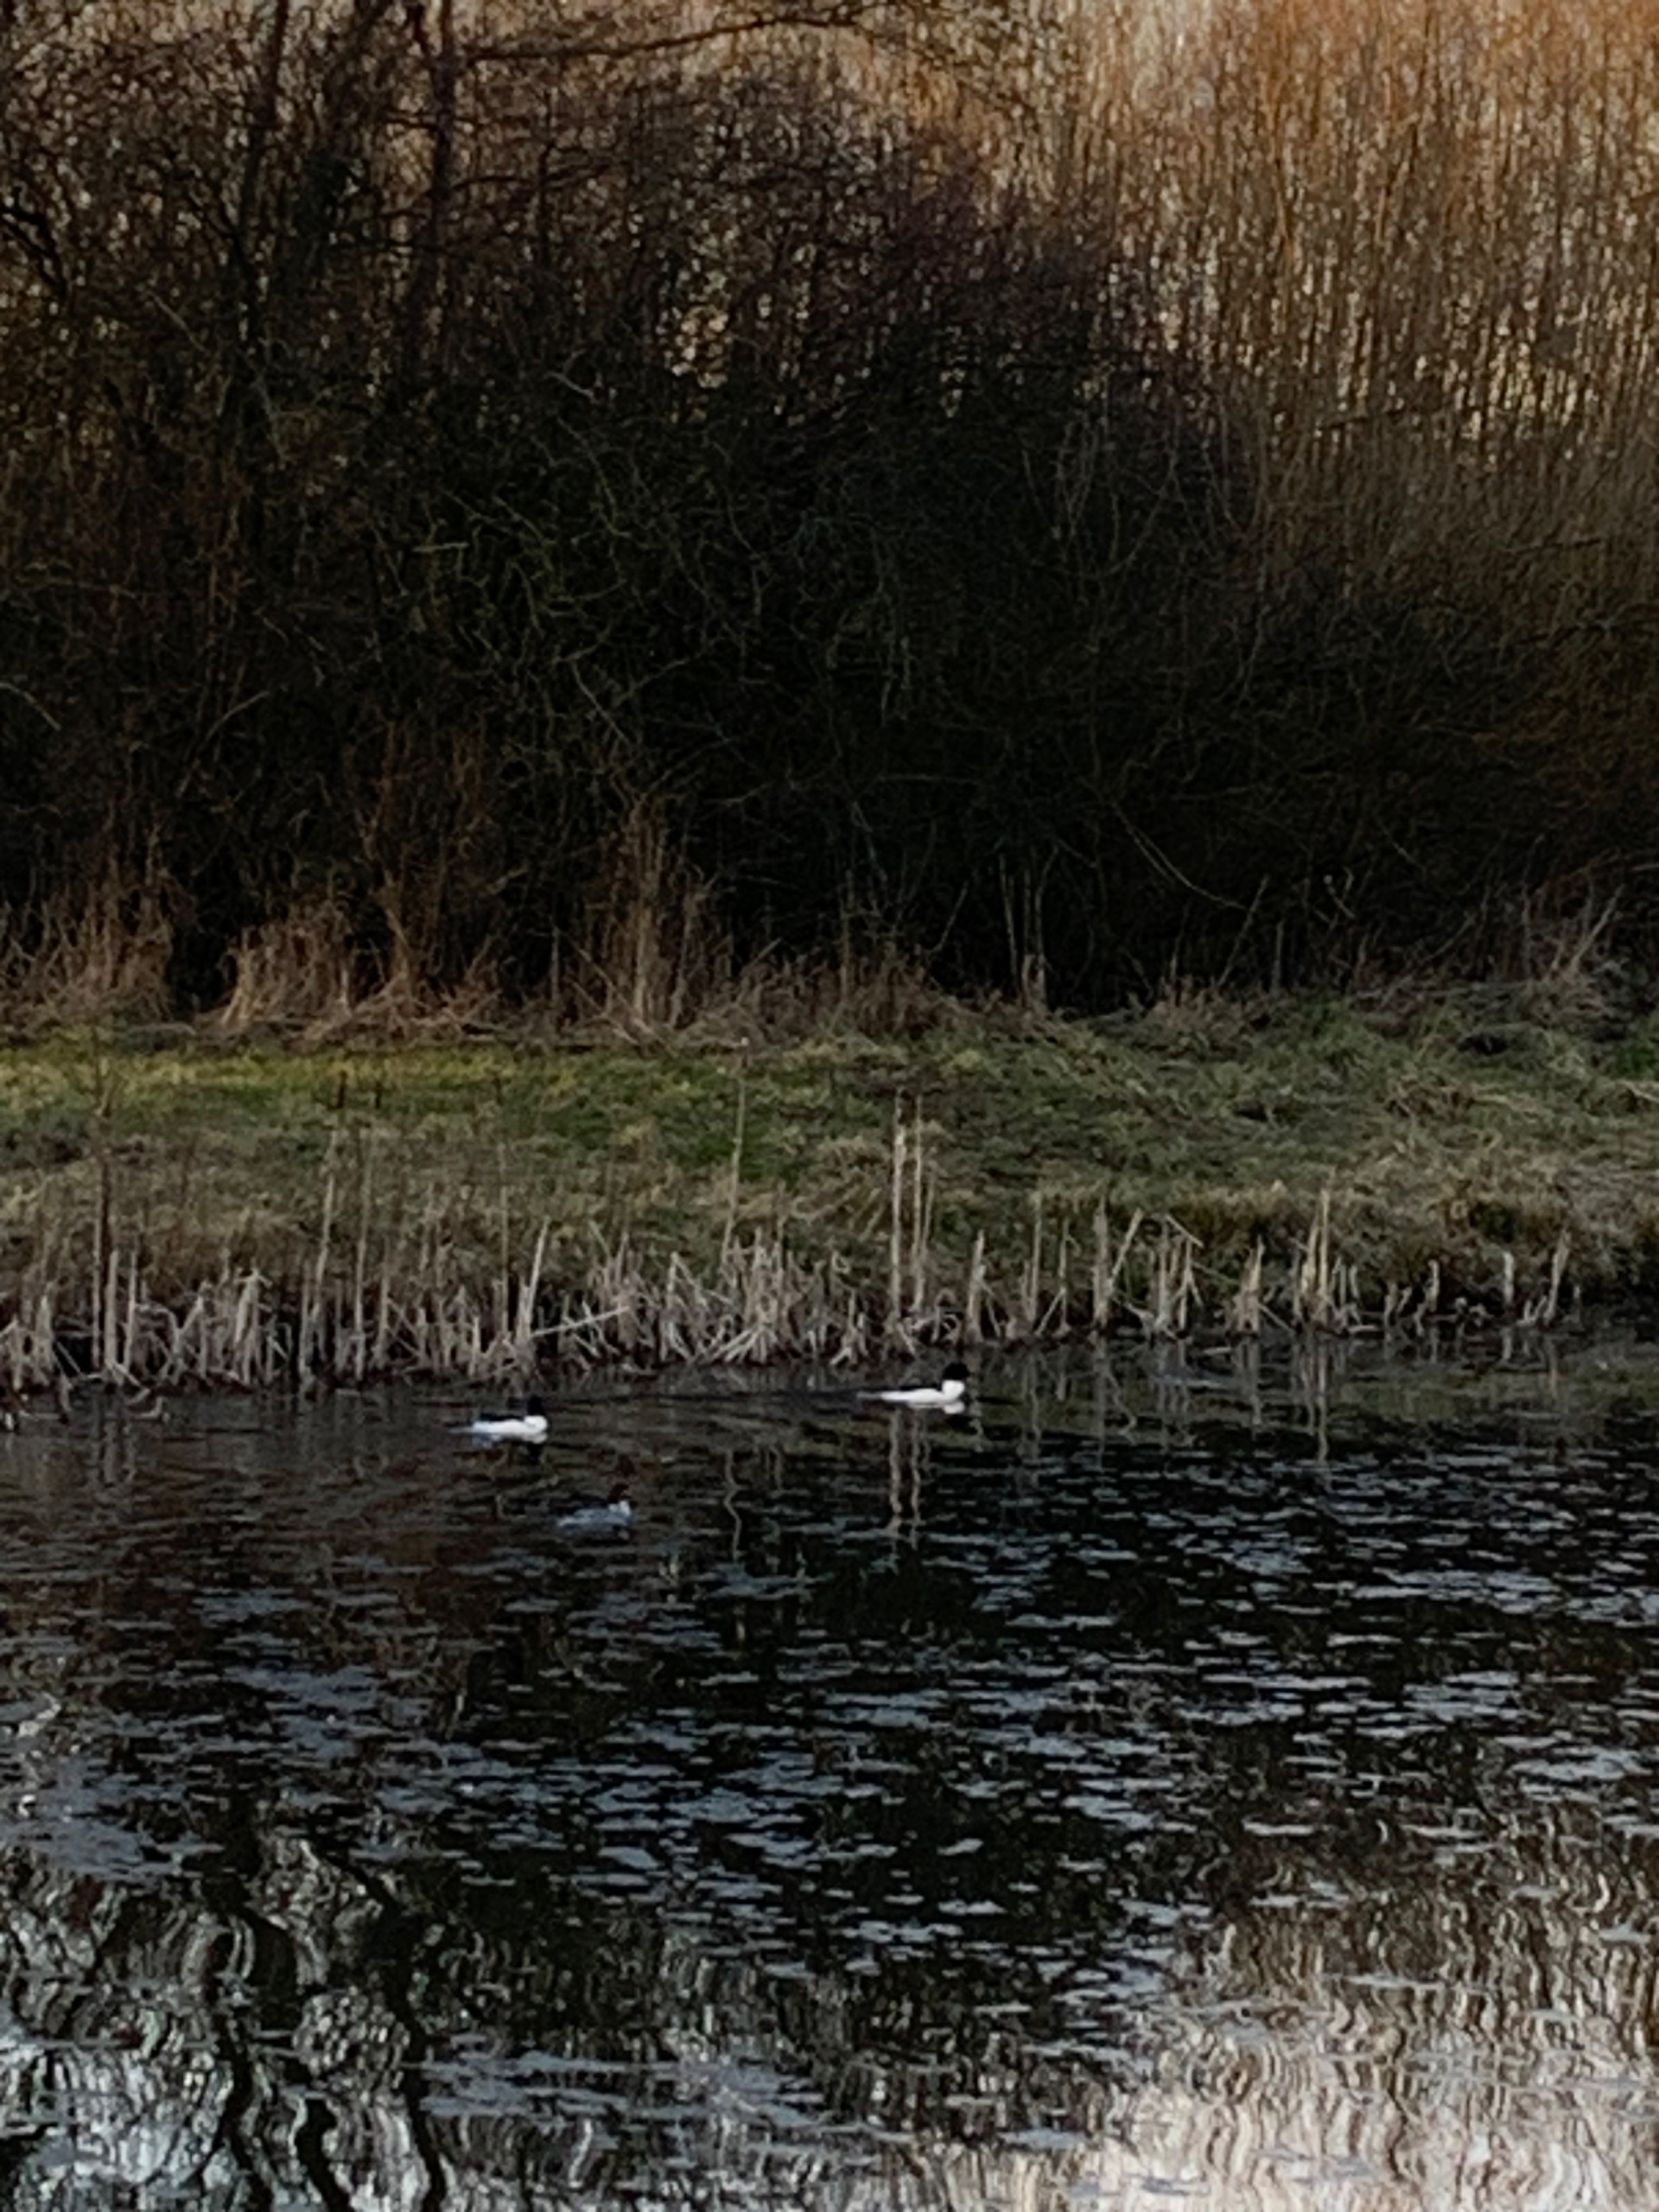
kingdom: Animalia
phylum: Chordata
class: Aves
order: Anseriformes
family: Anatidae
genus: Mergus
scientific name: Mergus merganser
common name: Stor skallesluger
